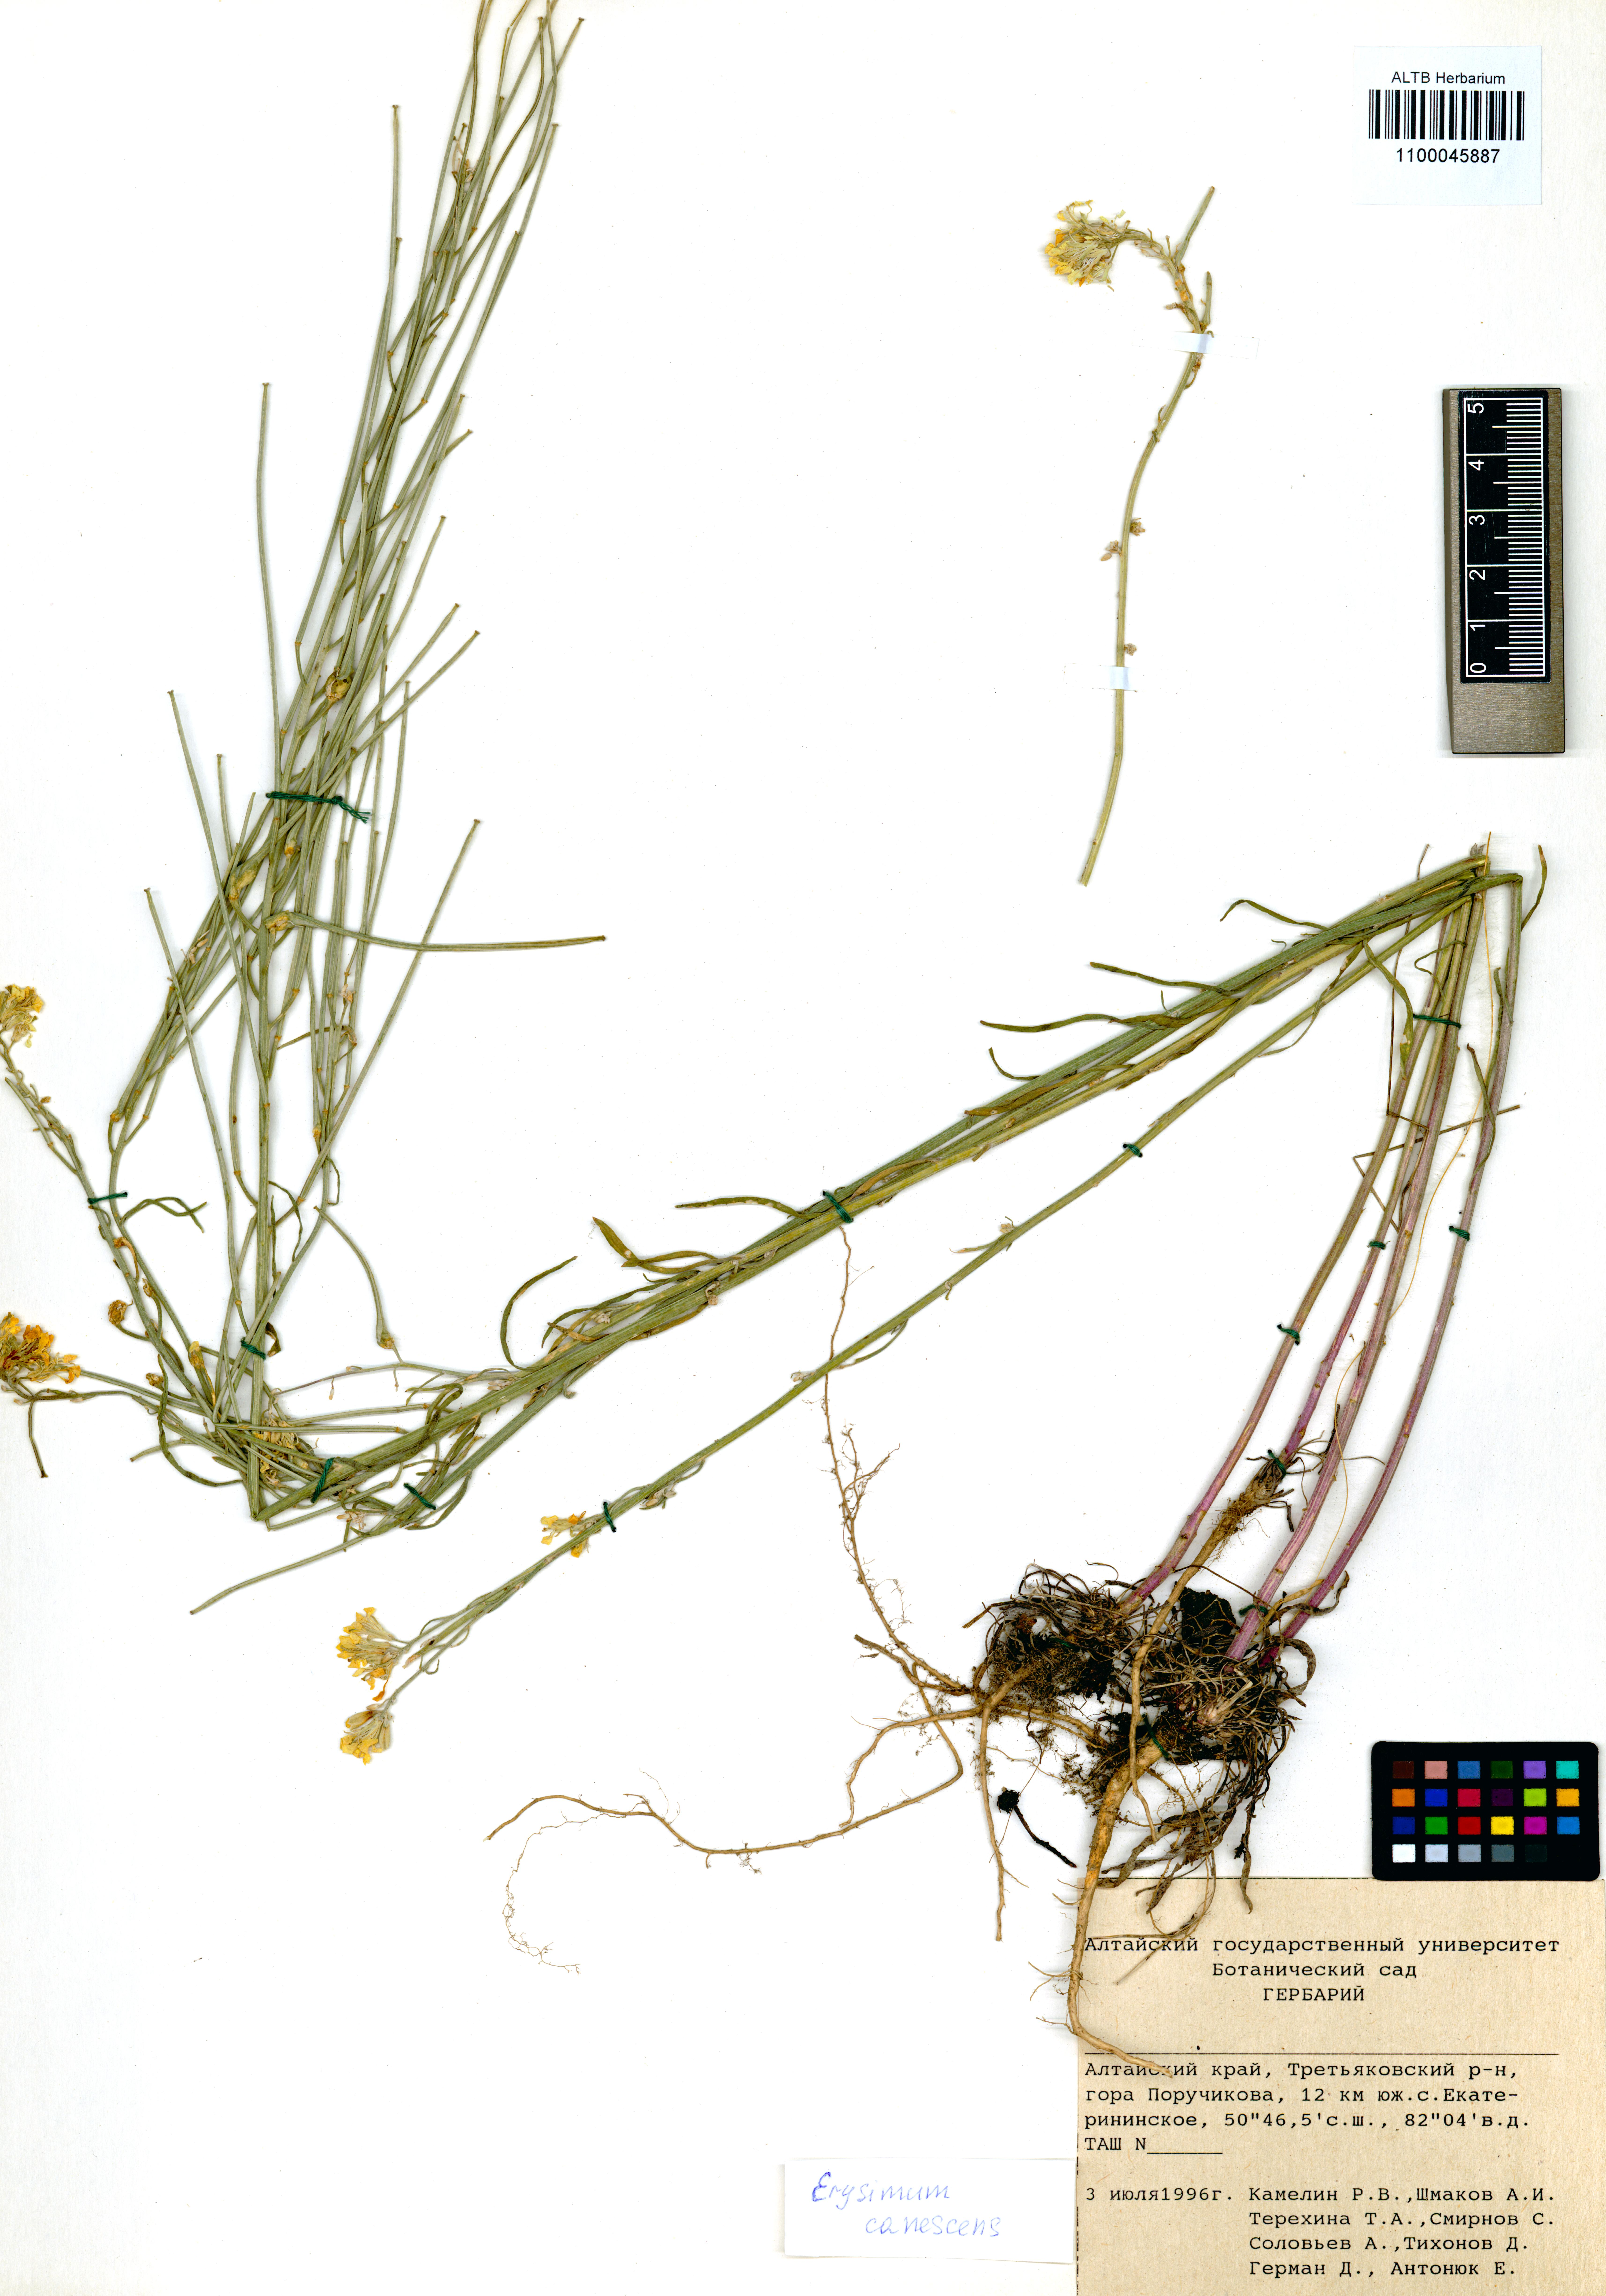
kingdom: Plantae
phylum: Tracheophyta
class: Magnoliopsida
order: Brassicales
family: Brassicaceae
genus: Erysimum
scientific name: Erysimum canescens
